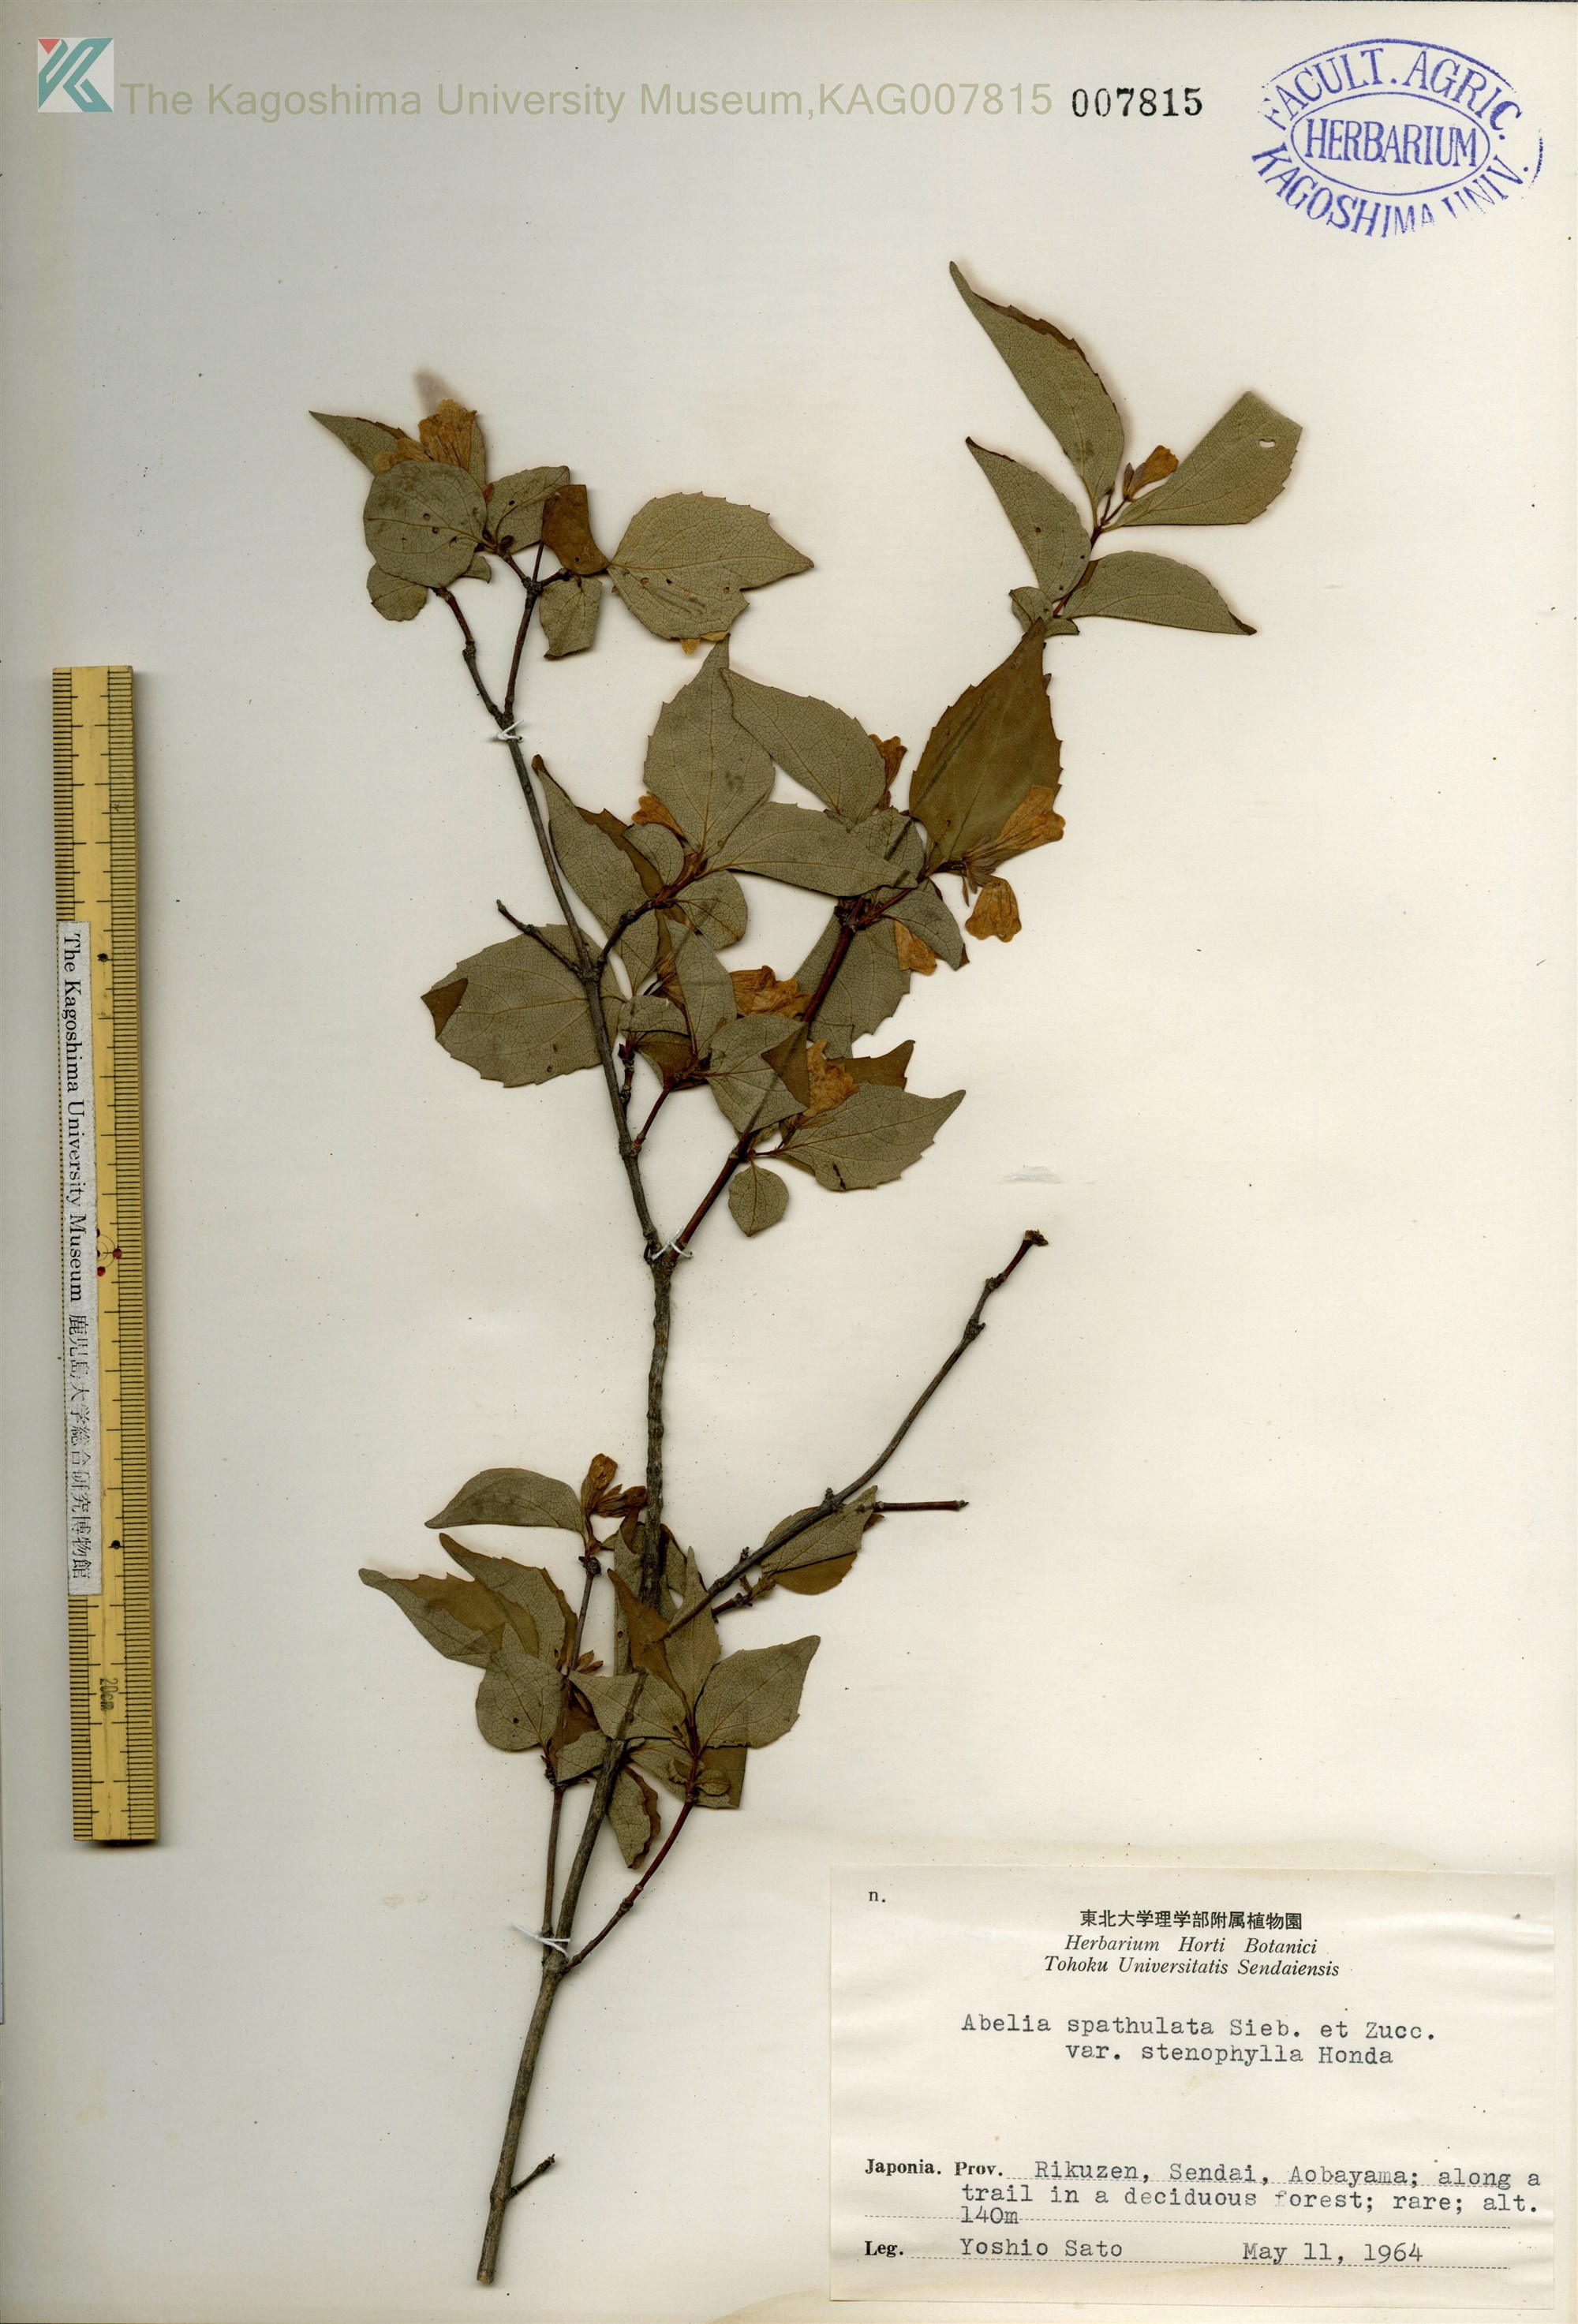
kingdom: Plantae
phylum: Tracheophyta
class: Magnoliopsida
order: Dipsacales
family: Caprifoliaceae
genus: Diabelia
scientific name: Diabelia spathulata
